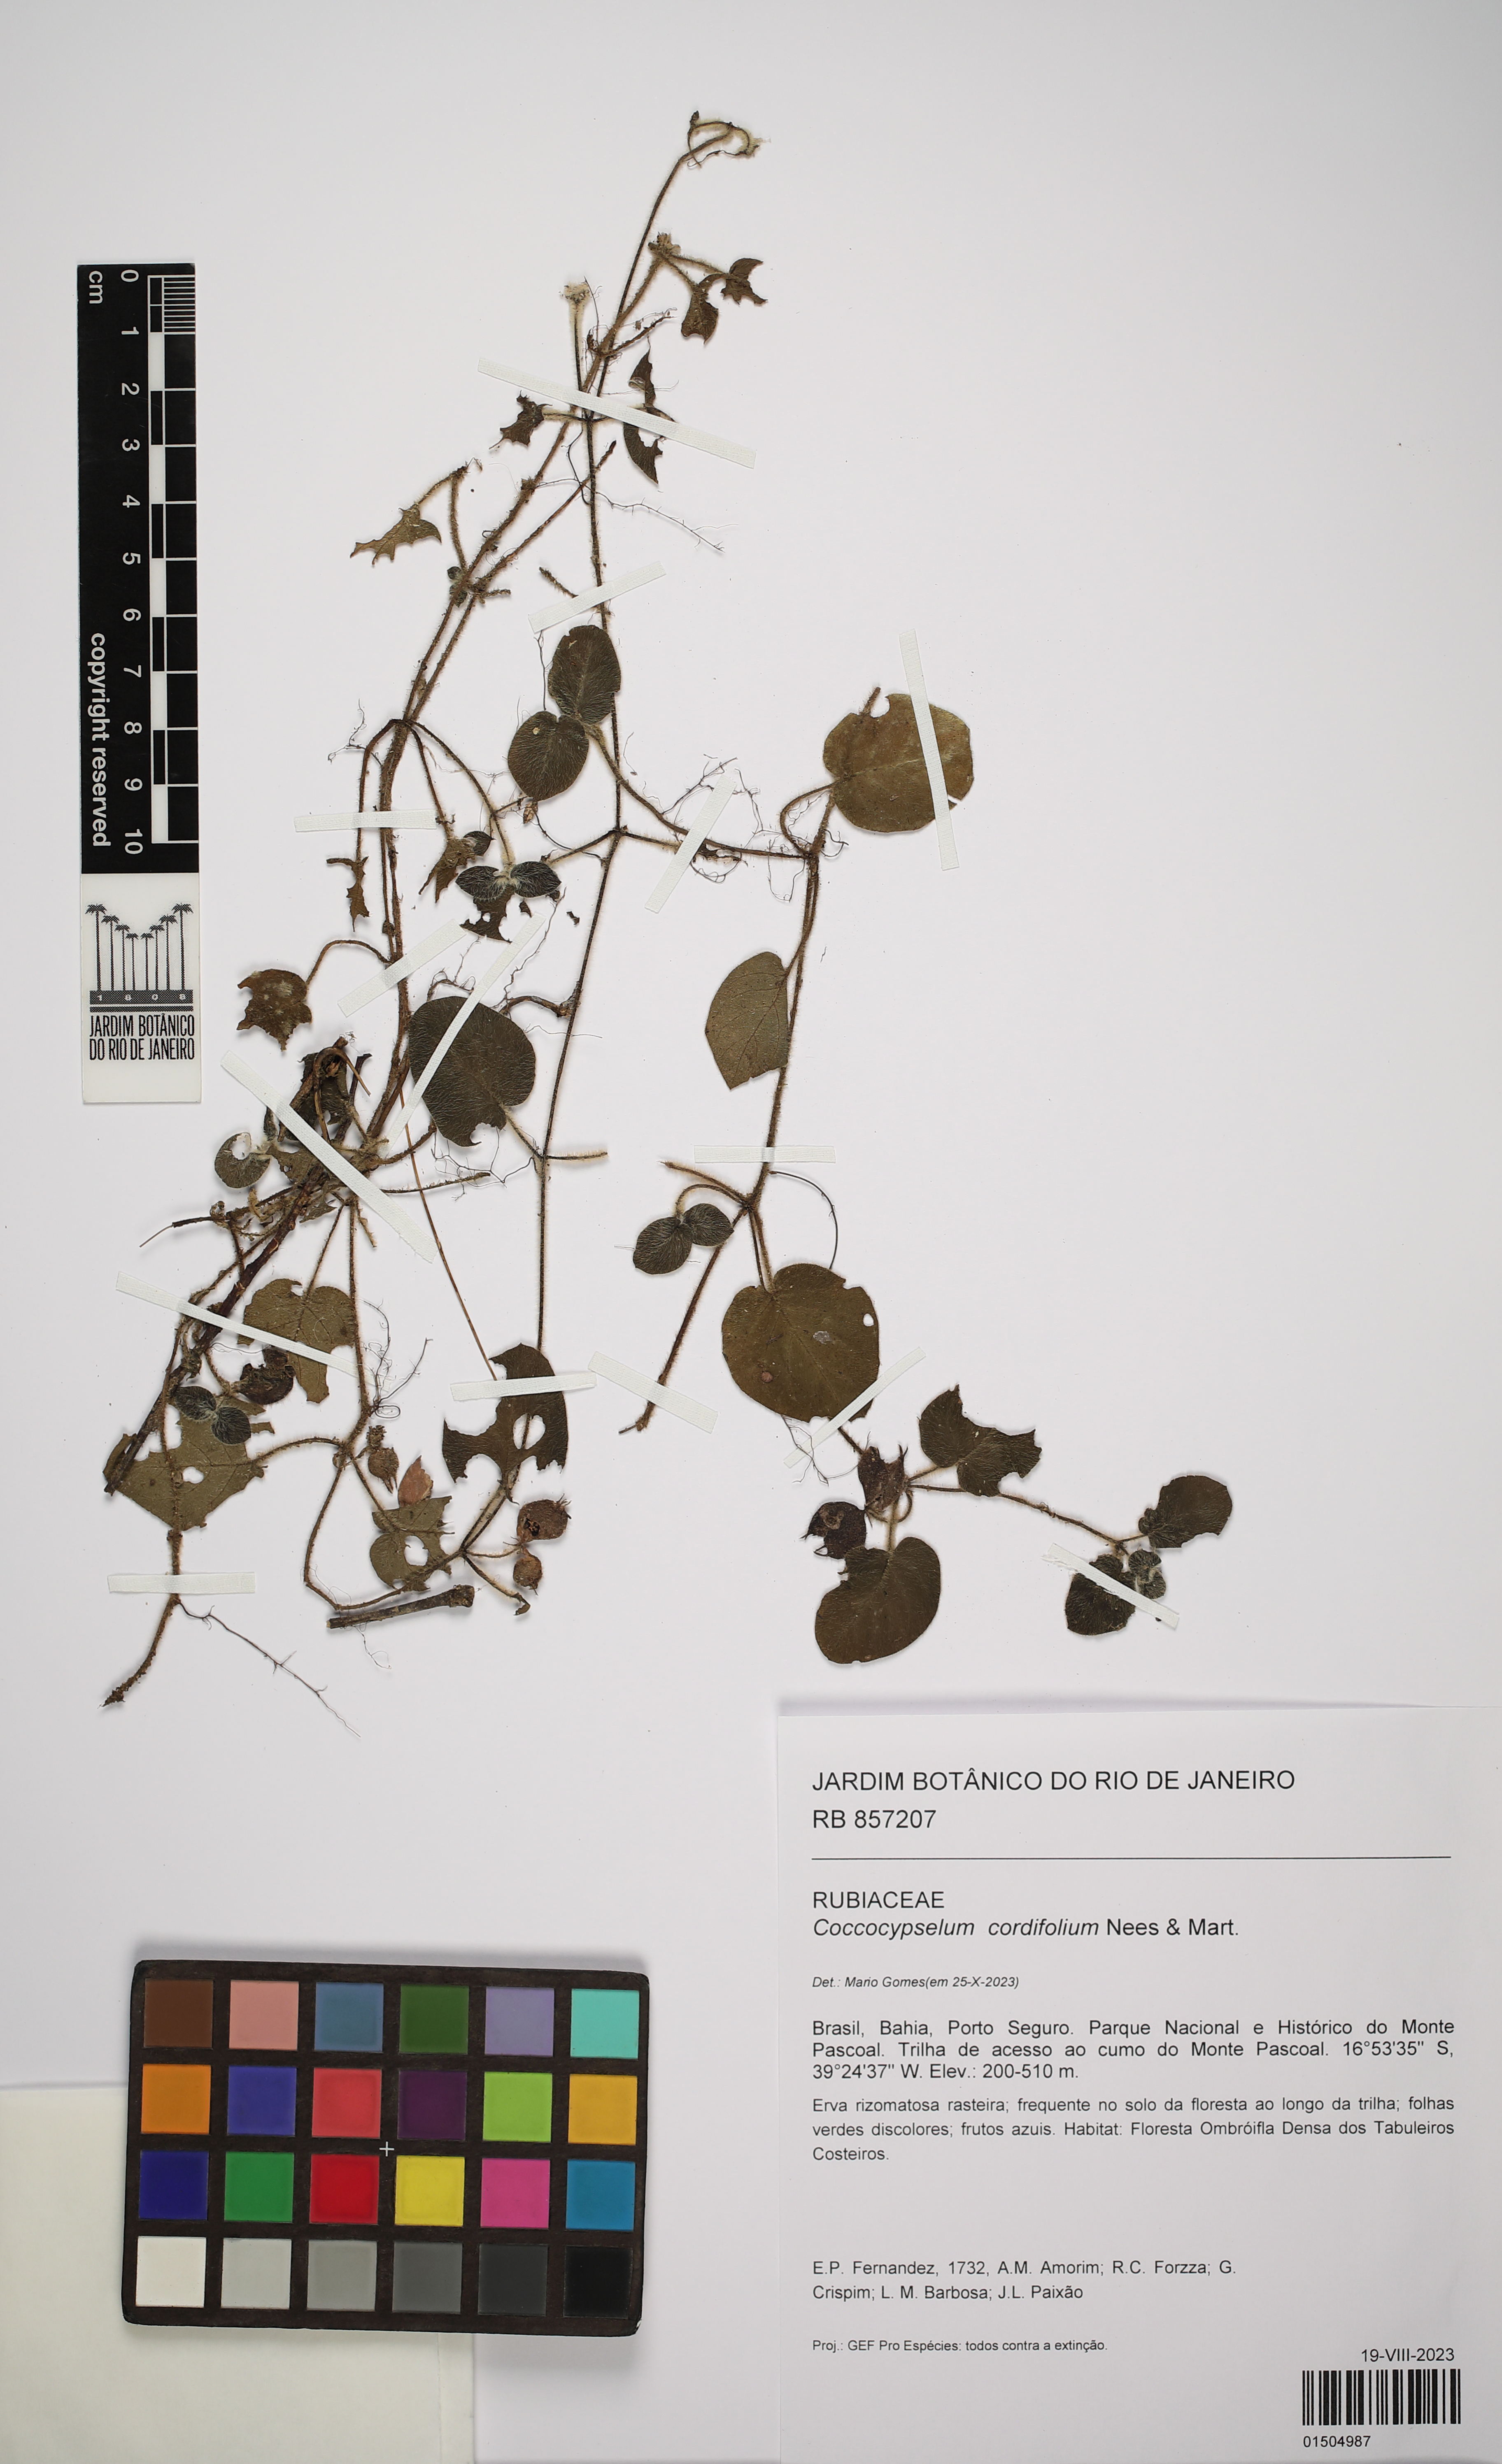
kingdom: Plantae
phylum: Tracheophyta
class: Magnoliopsida
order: Gentianales
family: Rubiaceae
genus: Coccocypselum
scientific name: Coccocypselum cordifolium
